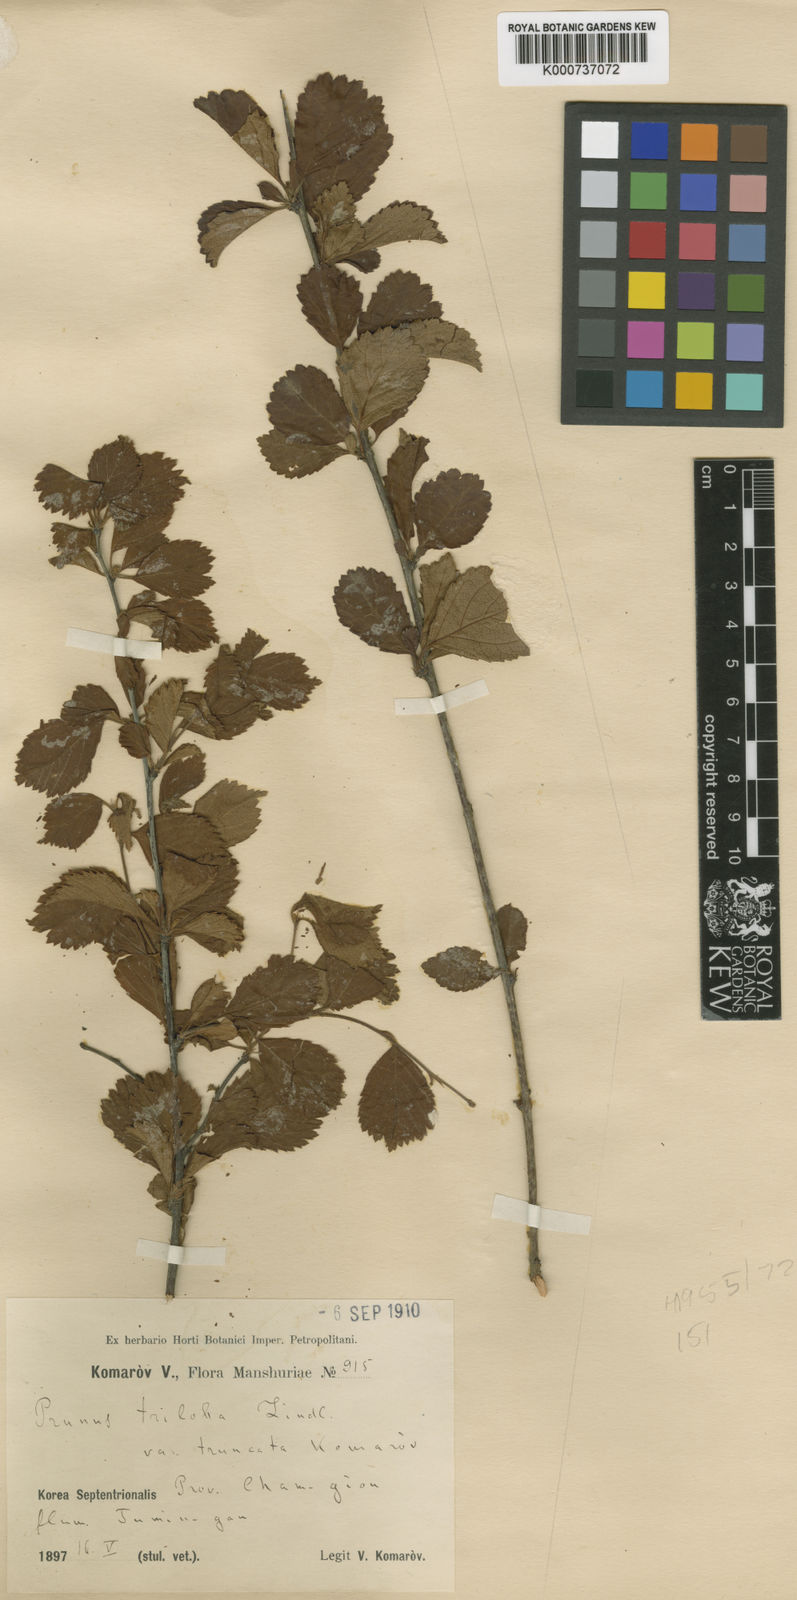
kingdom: Plantae
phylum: Tracheophyta
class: Magnoliopsida
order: Rosales
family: Rosaceae
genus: Prunus
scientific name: Prunus triloba
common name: Flowering plum
